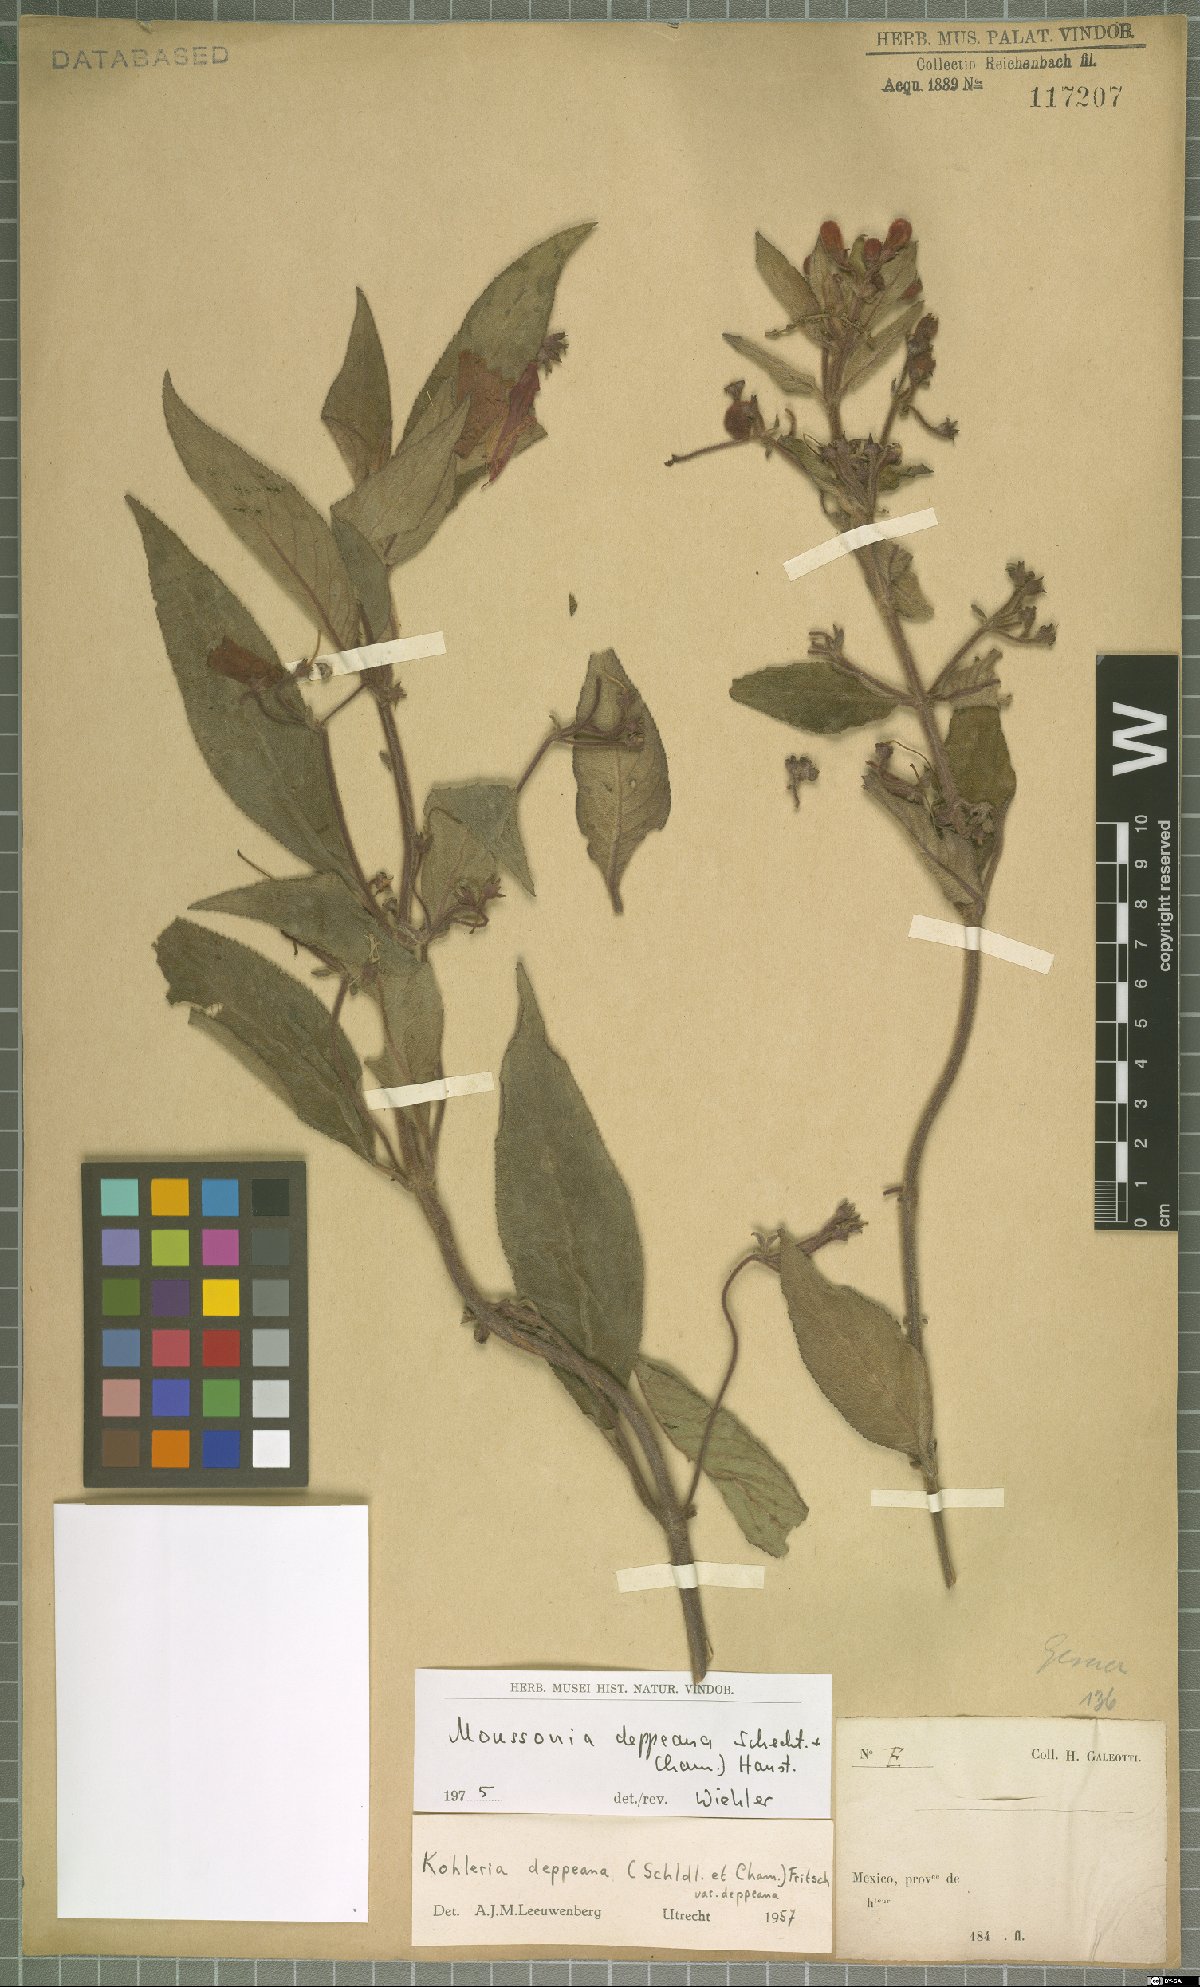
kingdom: Plantae
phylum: Tracheophyta
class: Magnoliopsida
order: Lamiales
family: Gesneriaceae
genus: Moussonia
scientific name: Moussonia deppeana
